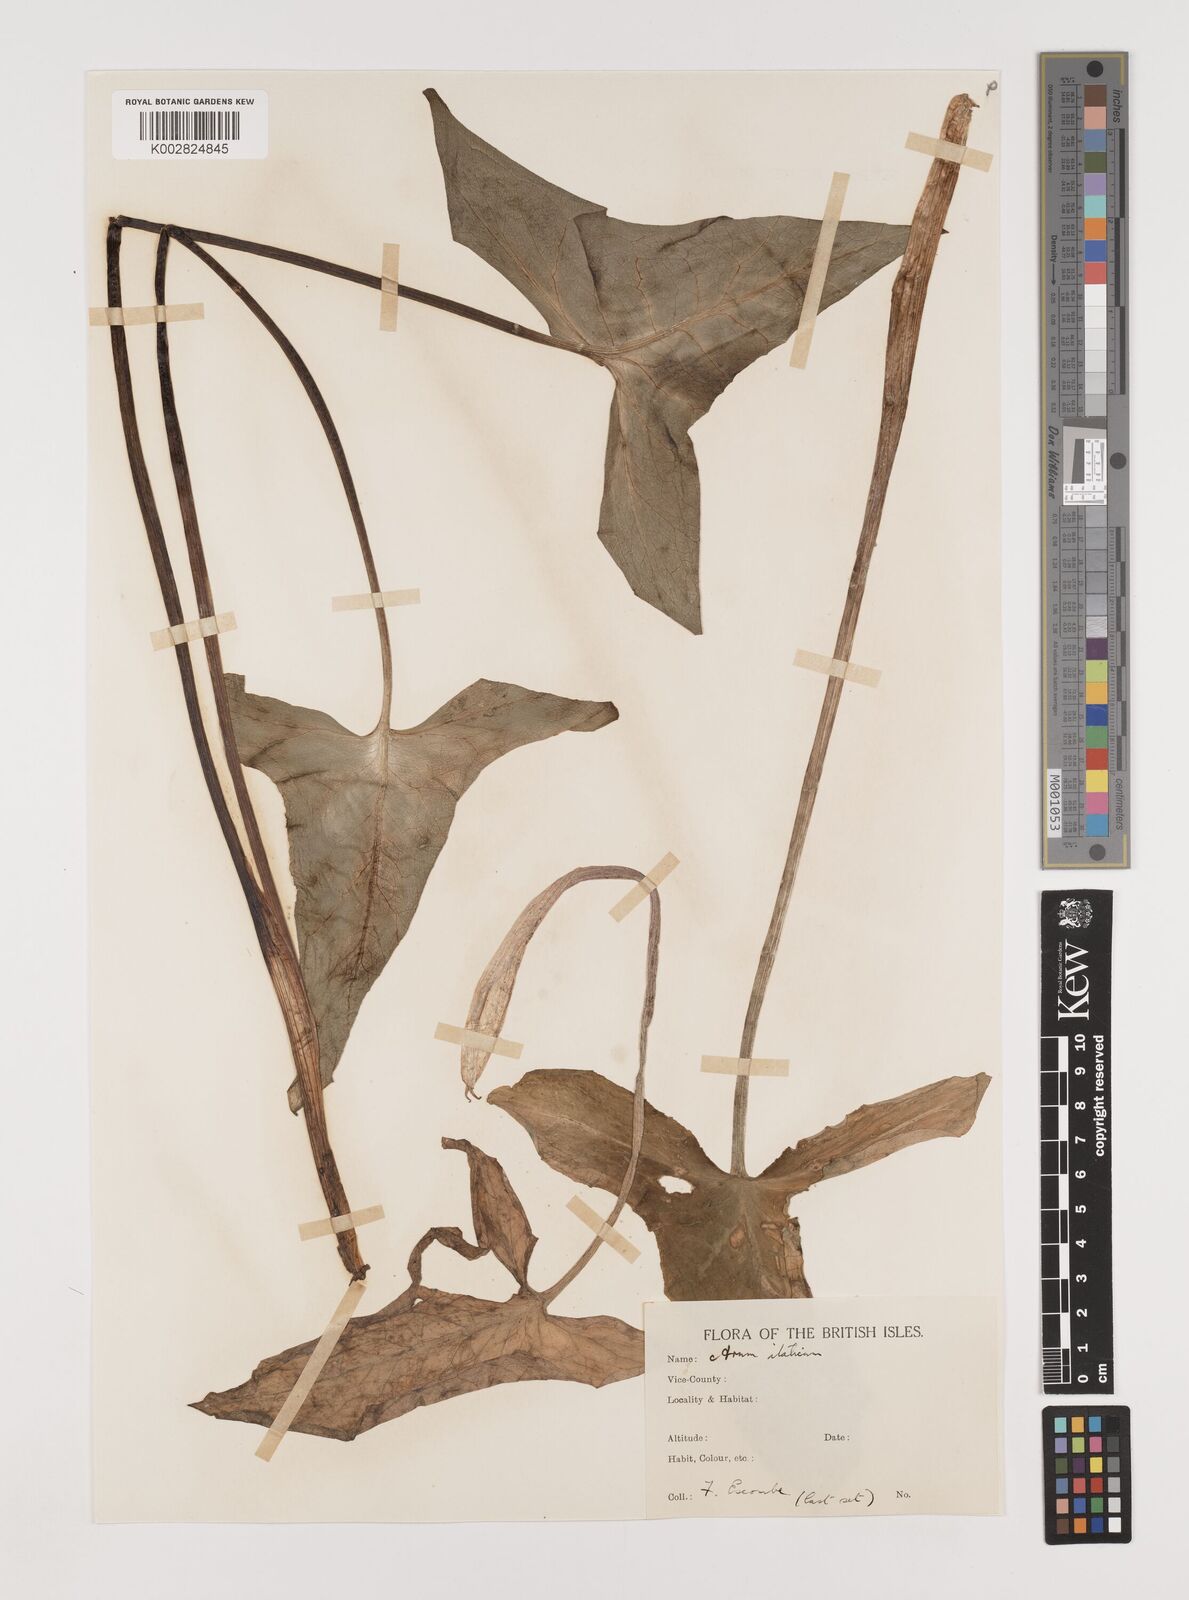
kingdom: Plantae
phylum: Tracheophyta
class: Liliopsida
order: Alismatales
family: Araceae
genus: Arum
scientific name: Arum italicum
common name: Italian lords-and-ladies
